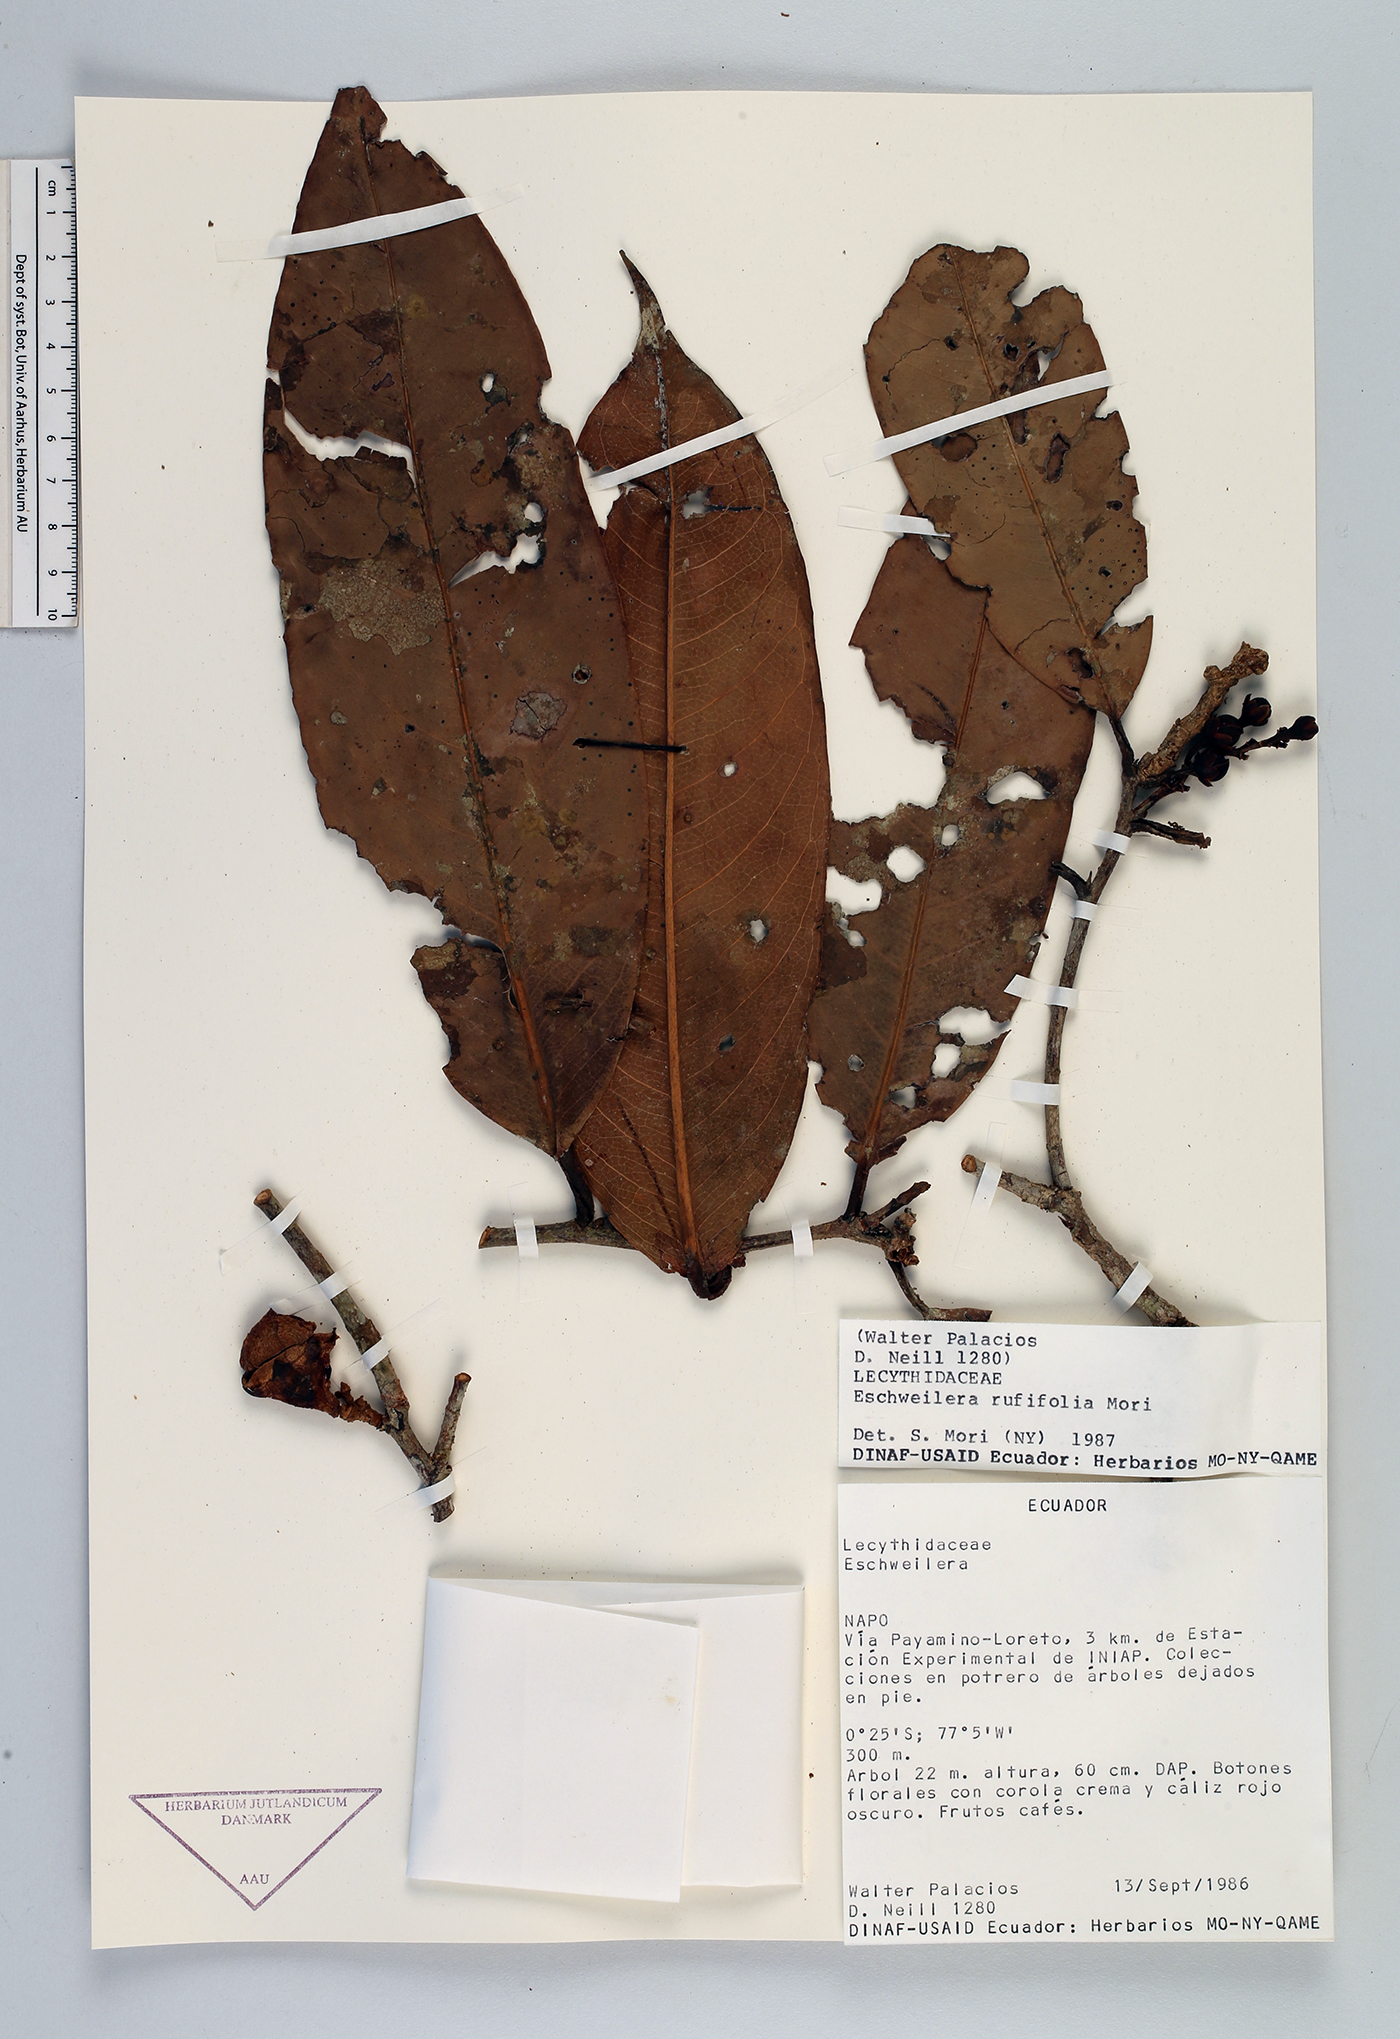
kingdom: Plantae
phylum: Tracheophyta
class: Magnoliopsida
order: Ericales
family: Lecythidaceae
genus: Eschweilera
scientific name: Eschweilera rufifolia
